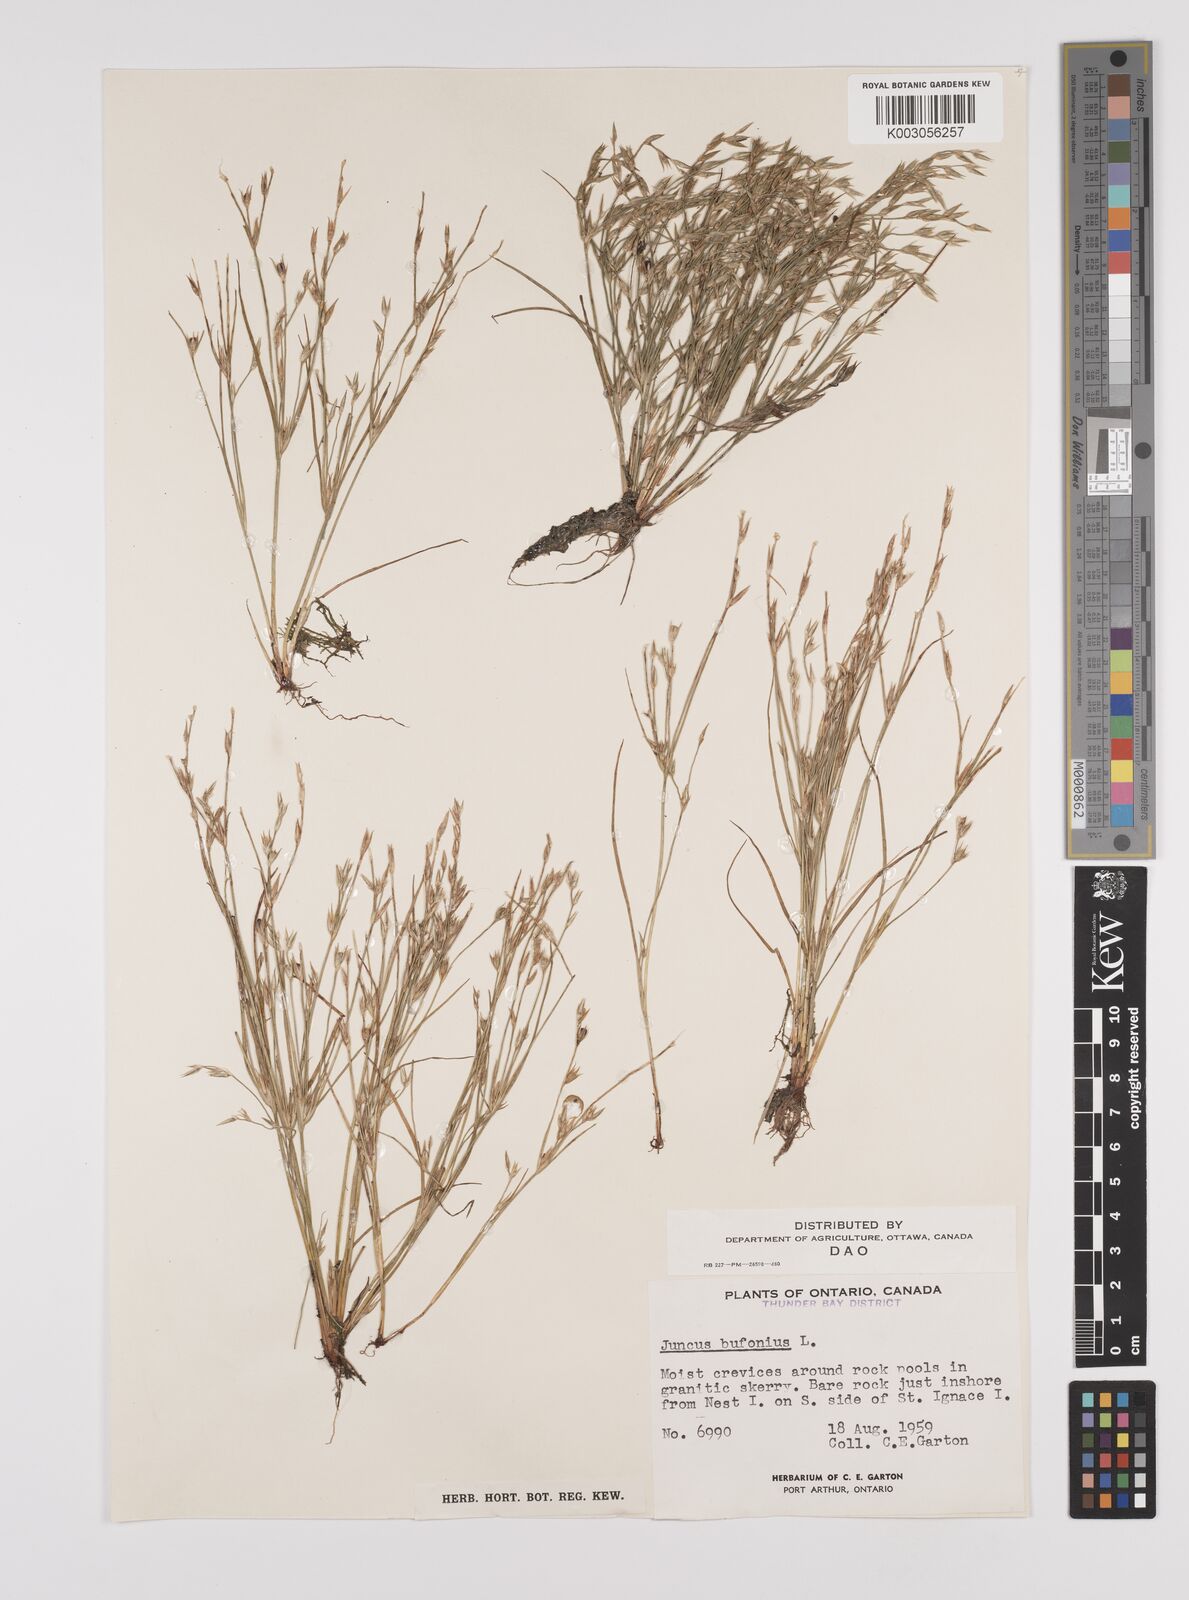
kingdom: Plantae
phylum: Tracheophyta
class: Liliopsida
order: Poales
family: Juncaceae
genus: Juncus
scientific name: Juncus bufonius
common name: Toad rush
